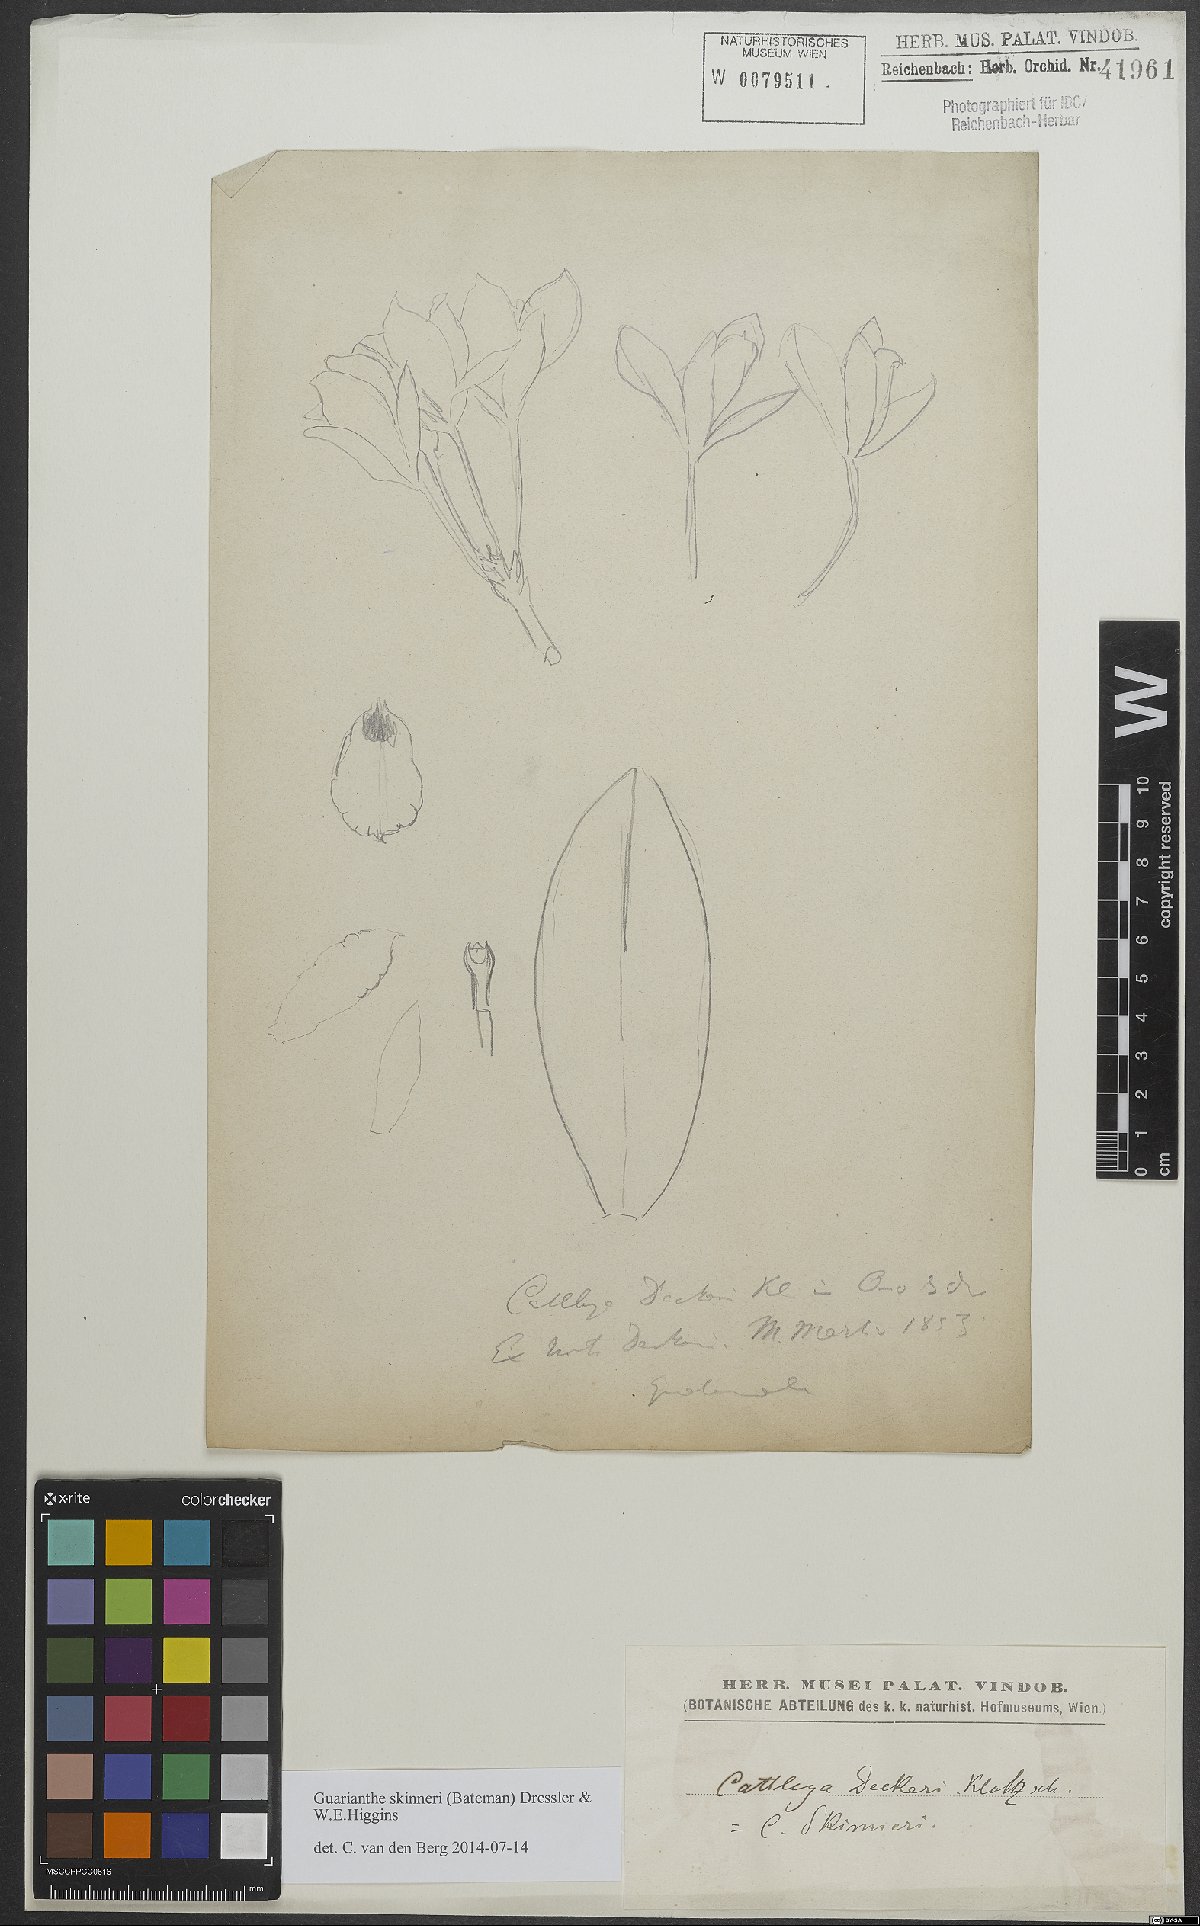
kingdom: Plantae
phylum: Tracheophyta
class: Liliopsida
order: Asparagales
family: Orchidaceae
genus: Guarianthe
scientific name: Guarianthe skinneri
